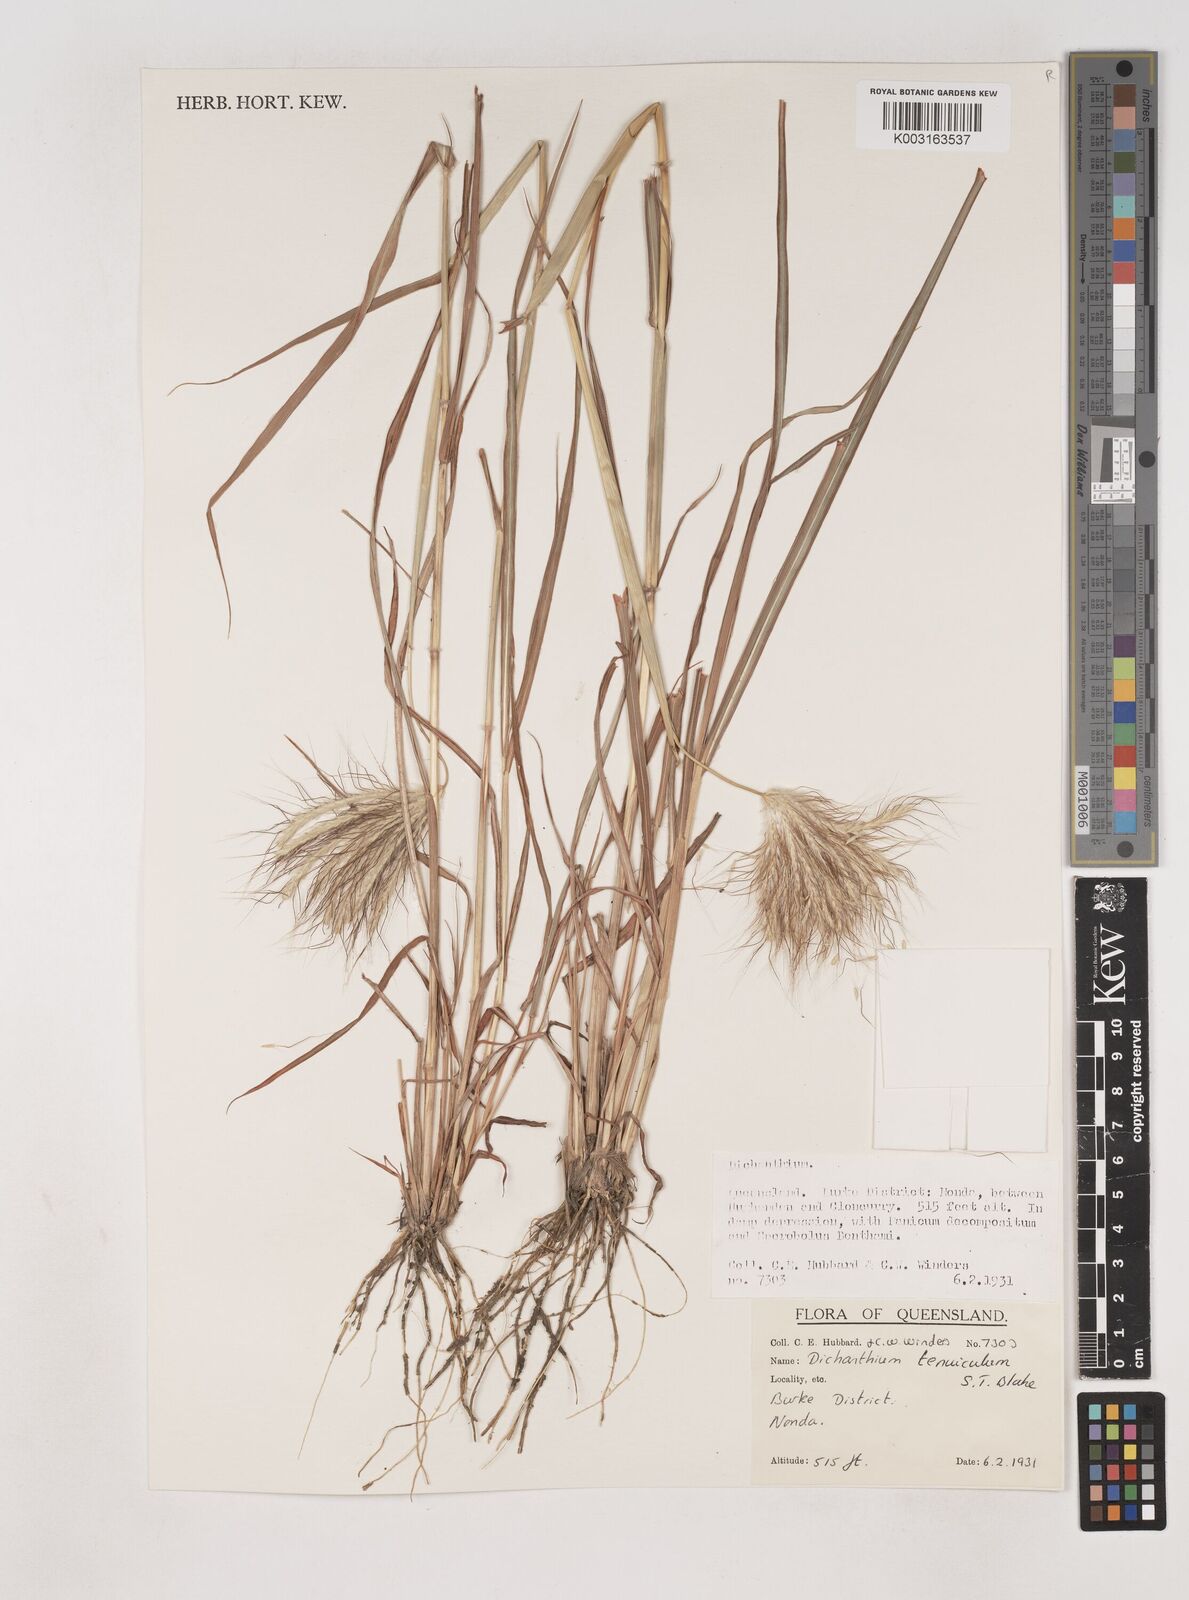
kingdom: Plantae
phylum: Tracheophyta
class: Liliopsida
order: Poales
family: Poaceae
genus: Dichanthium
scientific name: Dichanthium sericeum
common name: Silky bluestem
